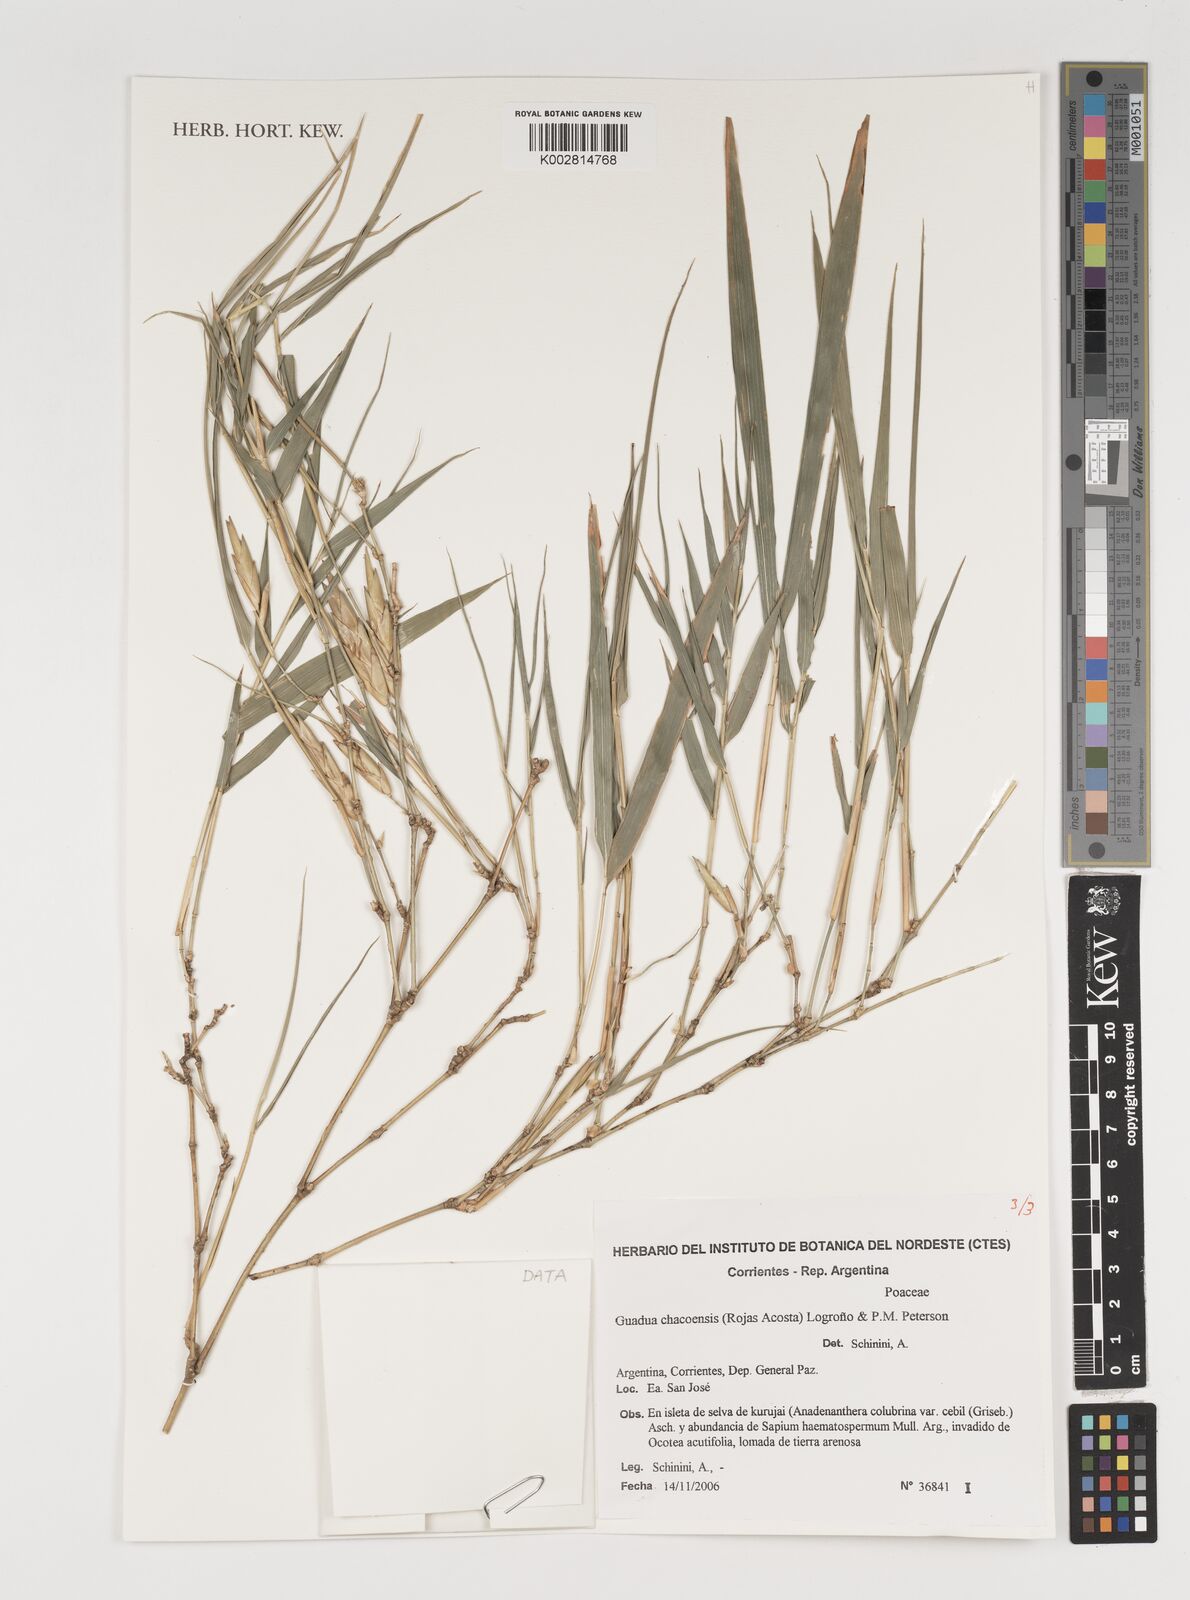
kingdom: Plantae
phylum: Tracheophyta
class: Liliopsida
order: Poales
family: Poaceae
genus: Guadua
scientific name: Guadua chacoensis
